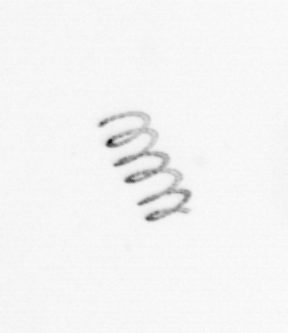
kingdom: Chromista
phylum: Ochrophyta
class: Bacillariophyceae
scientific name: Bacillariophyceae
